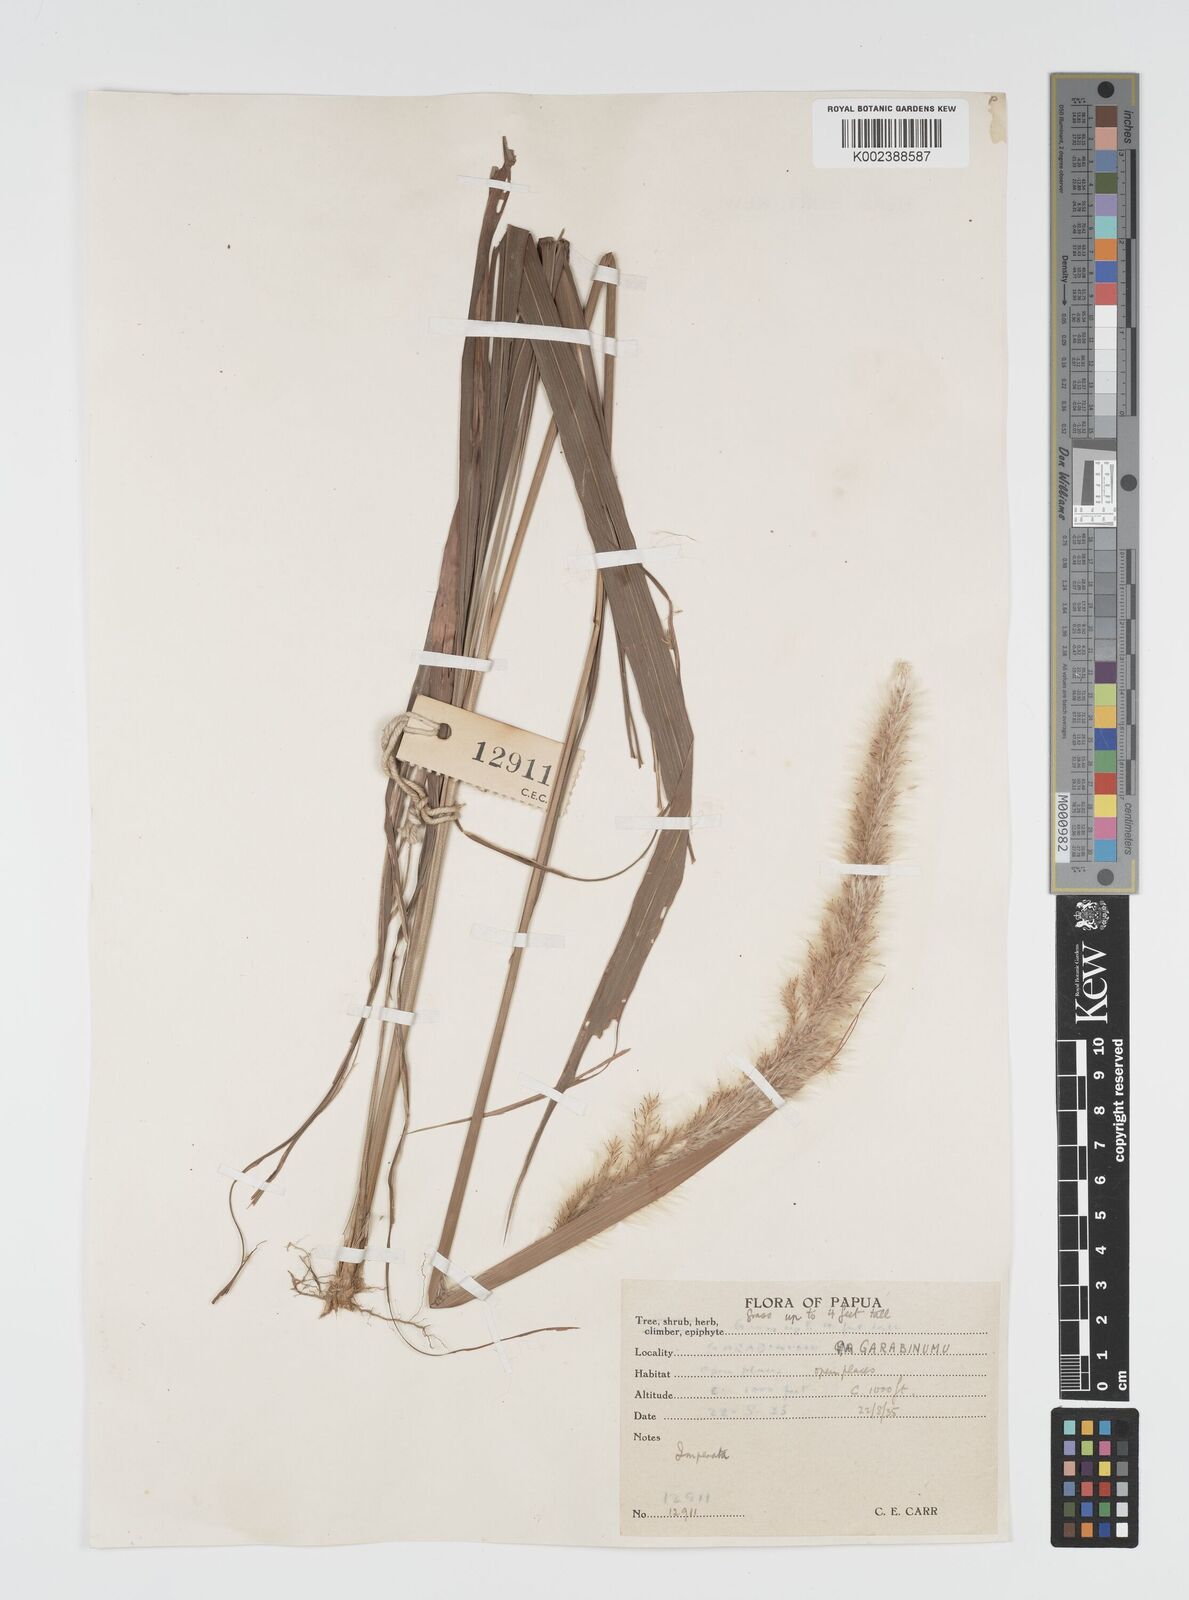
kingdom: Plantae
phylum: Tracheophyta
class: Liliopsida
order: Poales
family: Poaceae
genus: Imperata
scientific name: Imperata cylindrica
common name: Cogongrass
